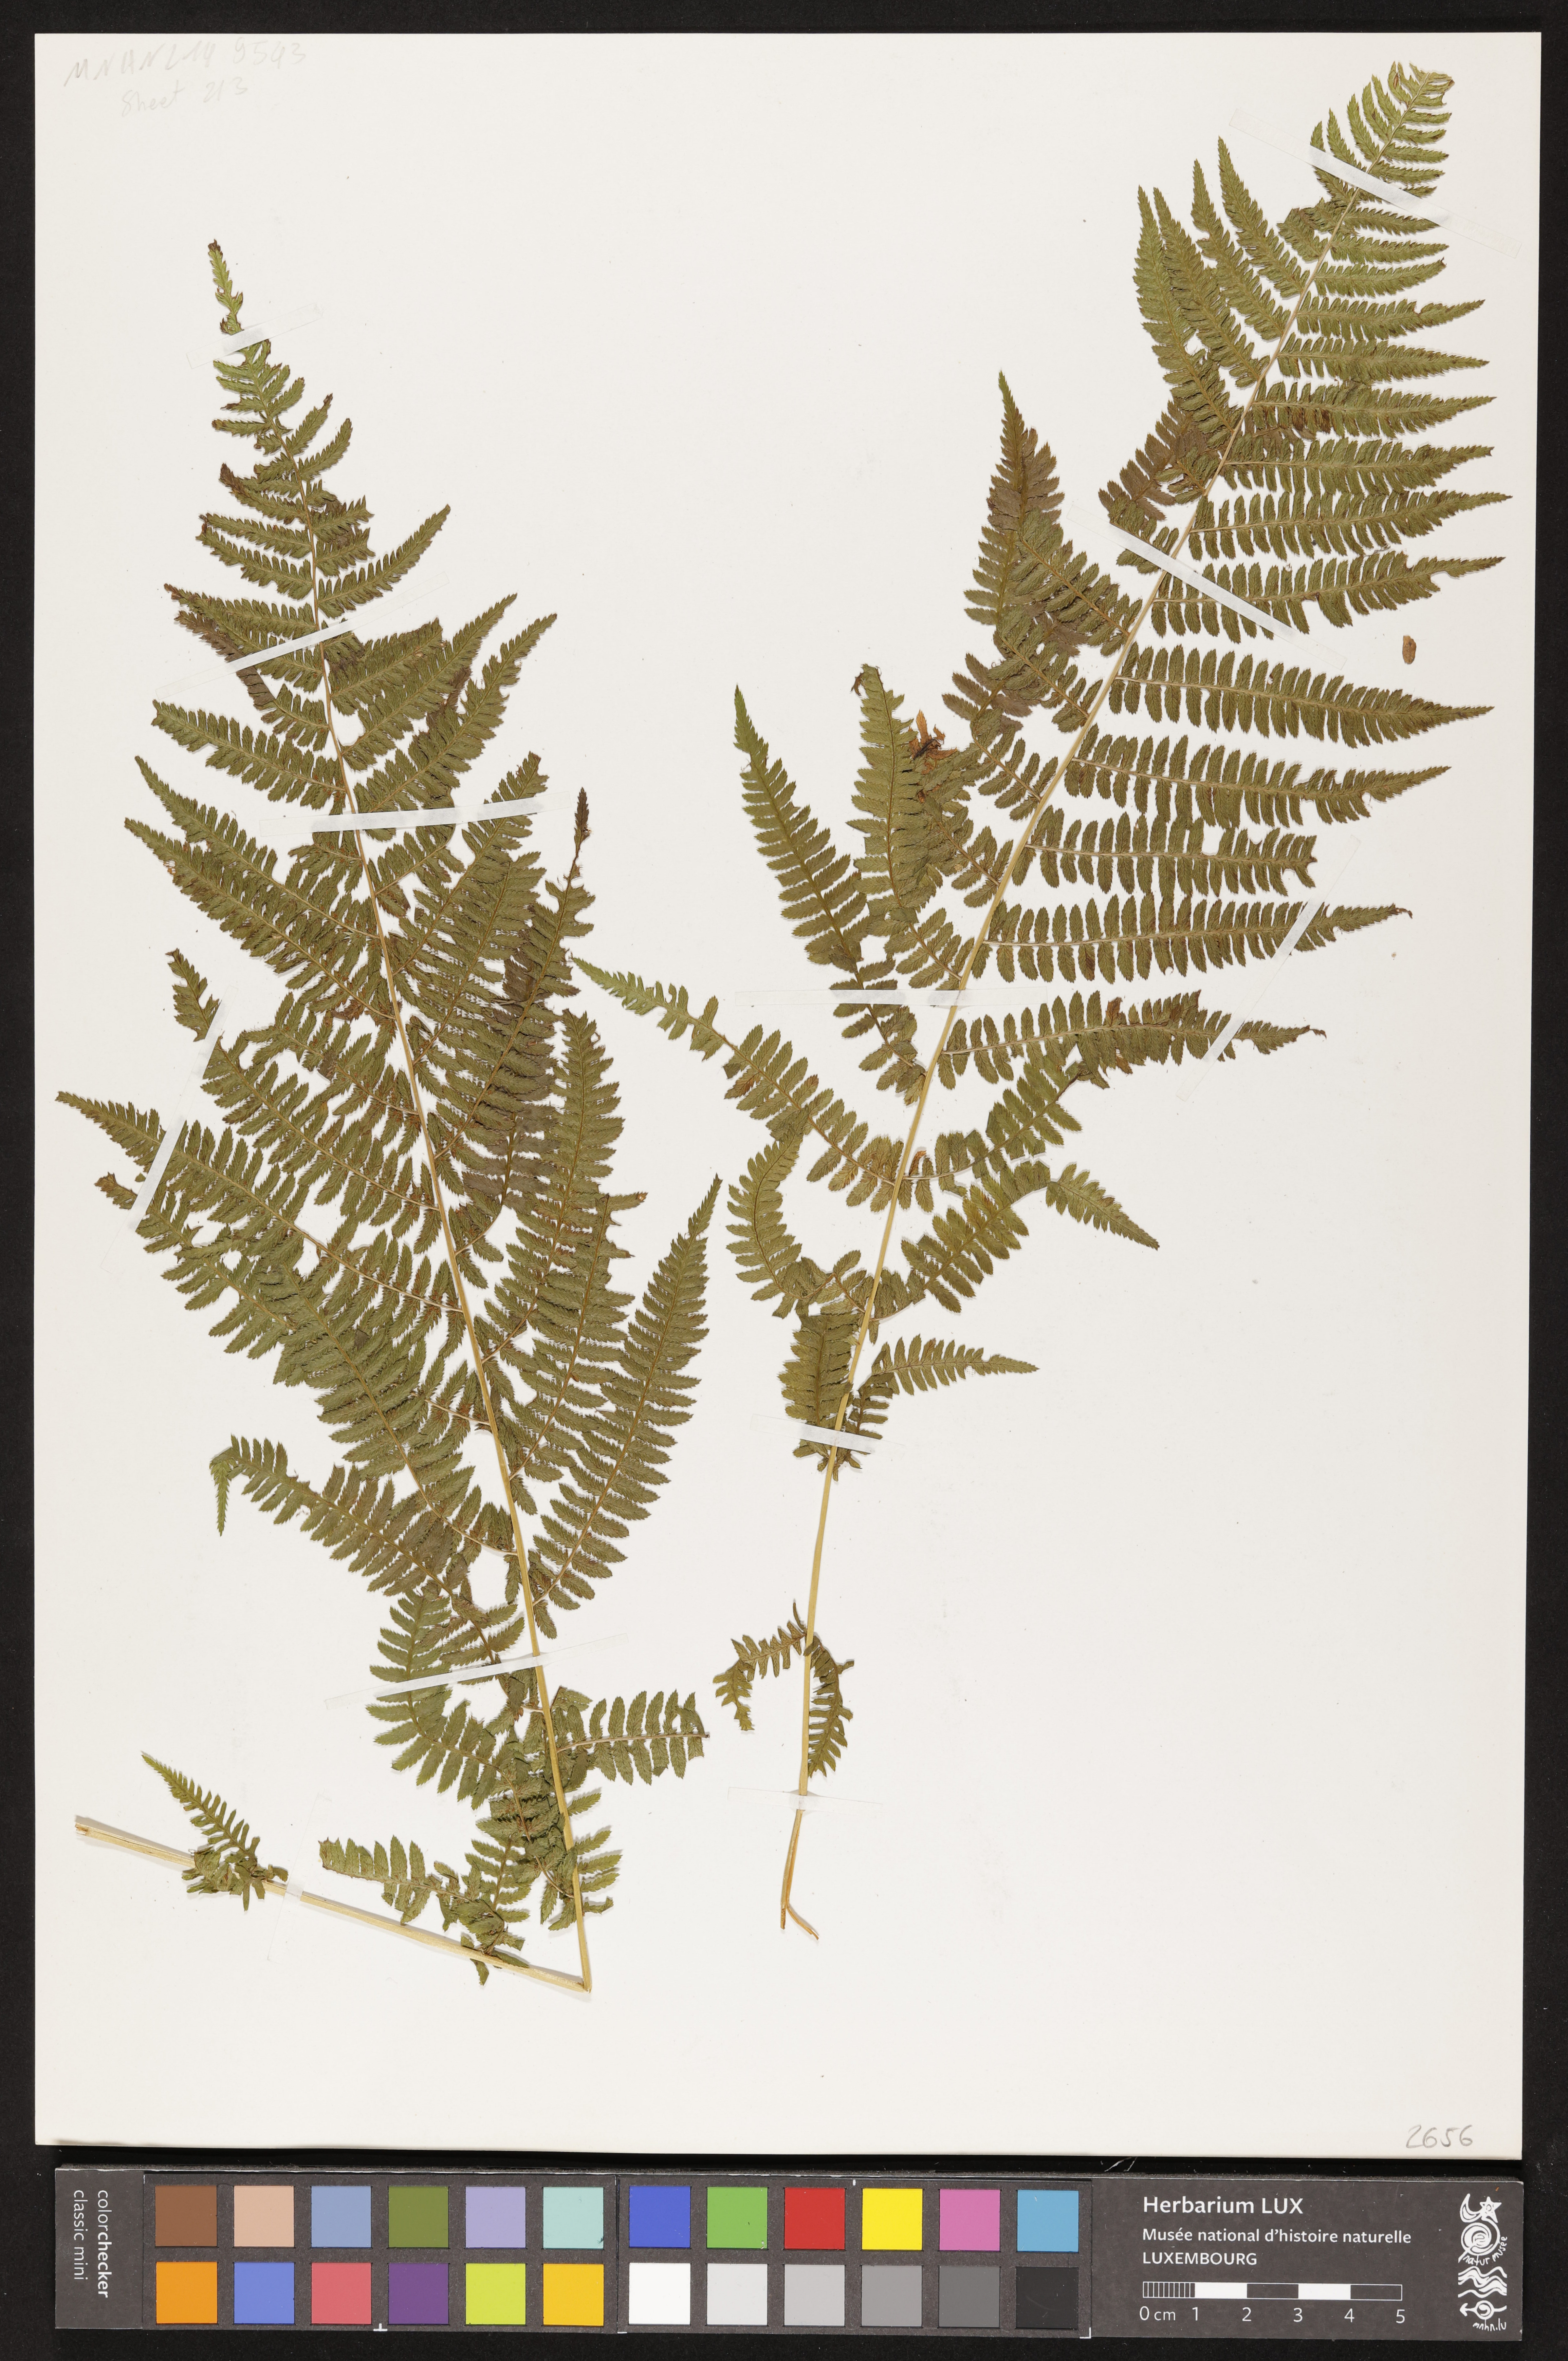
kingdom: Plantae
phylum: Tracheophyta
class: Polypodiopsida
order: Polypodiales
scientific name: Polypodiales
